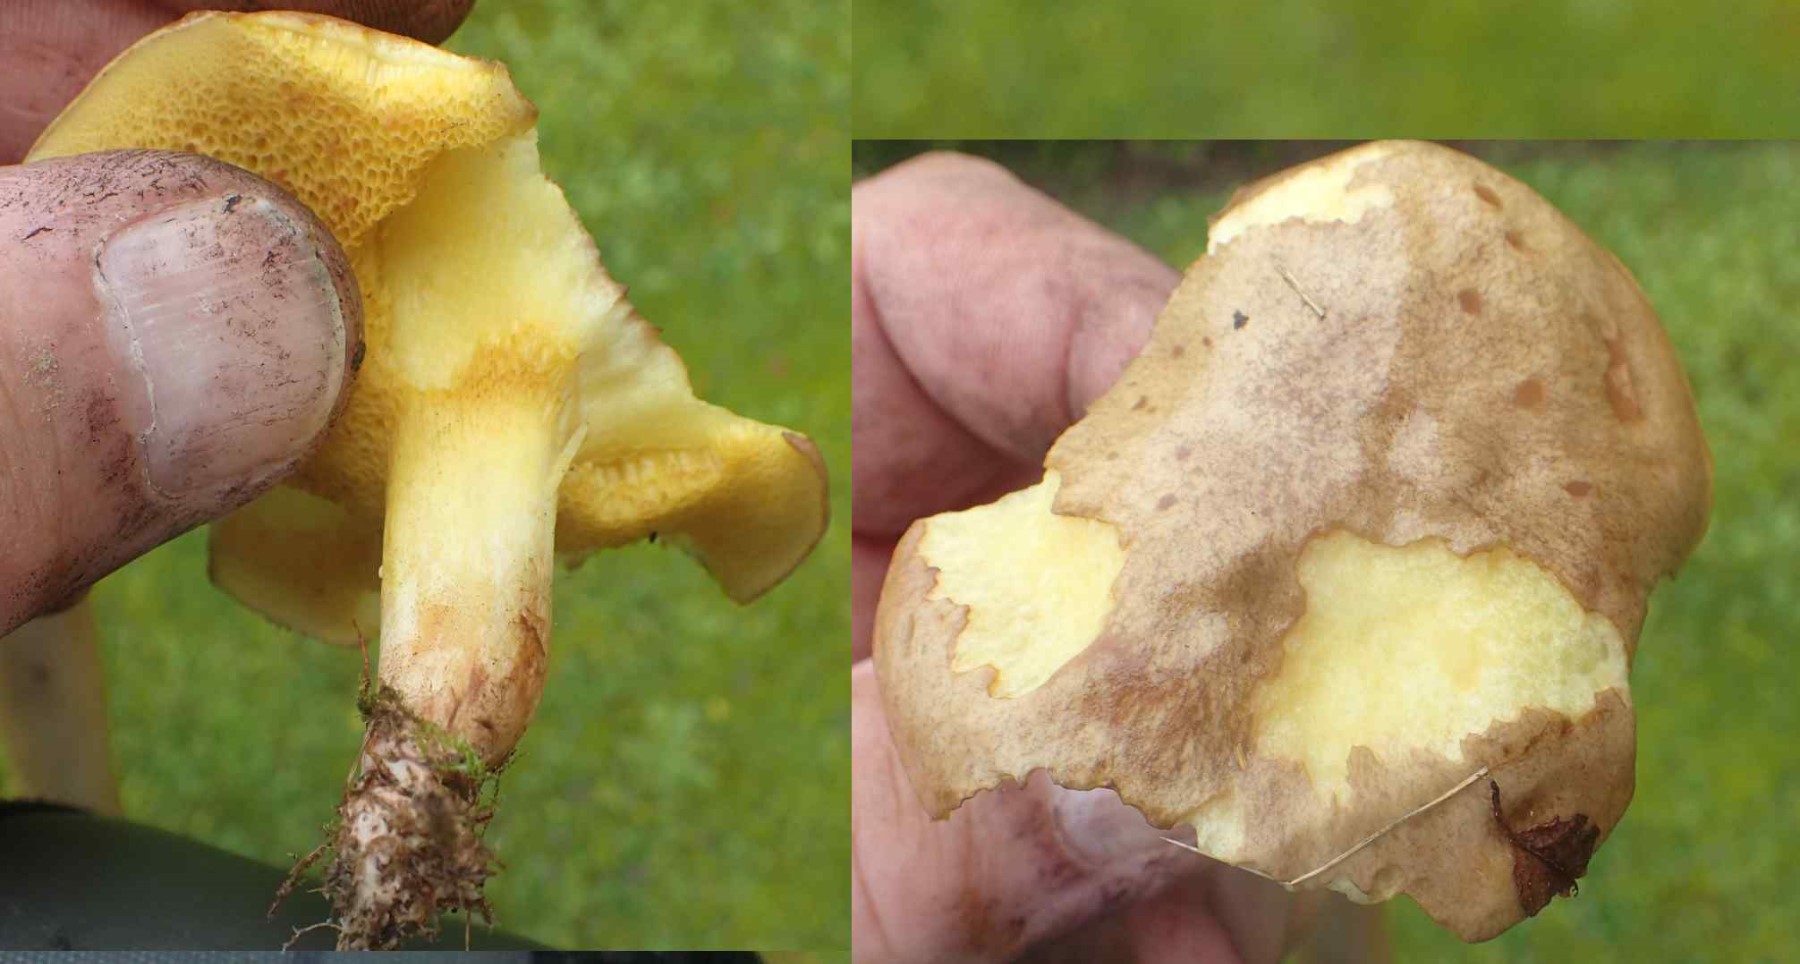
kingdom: Fungi
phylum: Basidiomycota
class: Agaricomycetes
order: Boletales
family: Suillaceae
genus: Suillus
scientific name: Suillus bovinus
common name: grovporet slimrørhat
